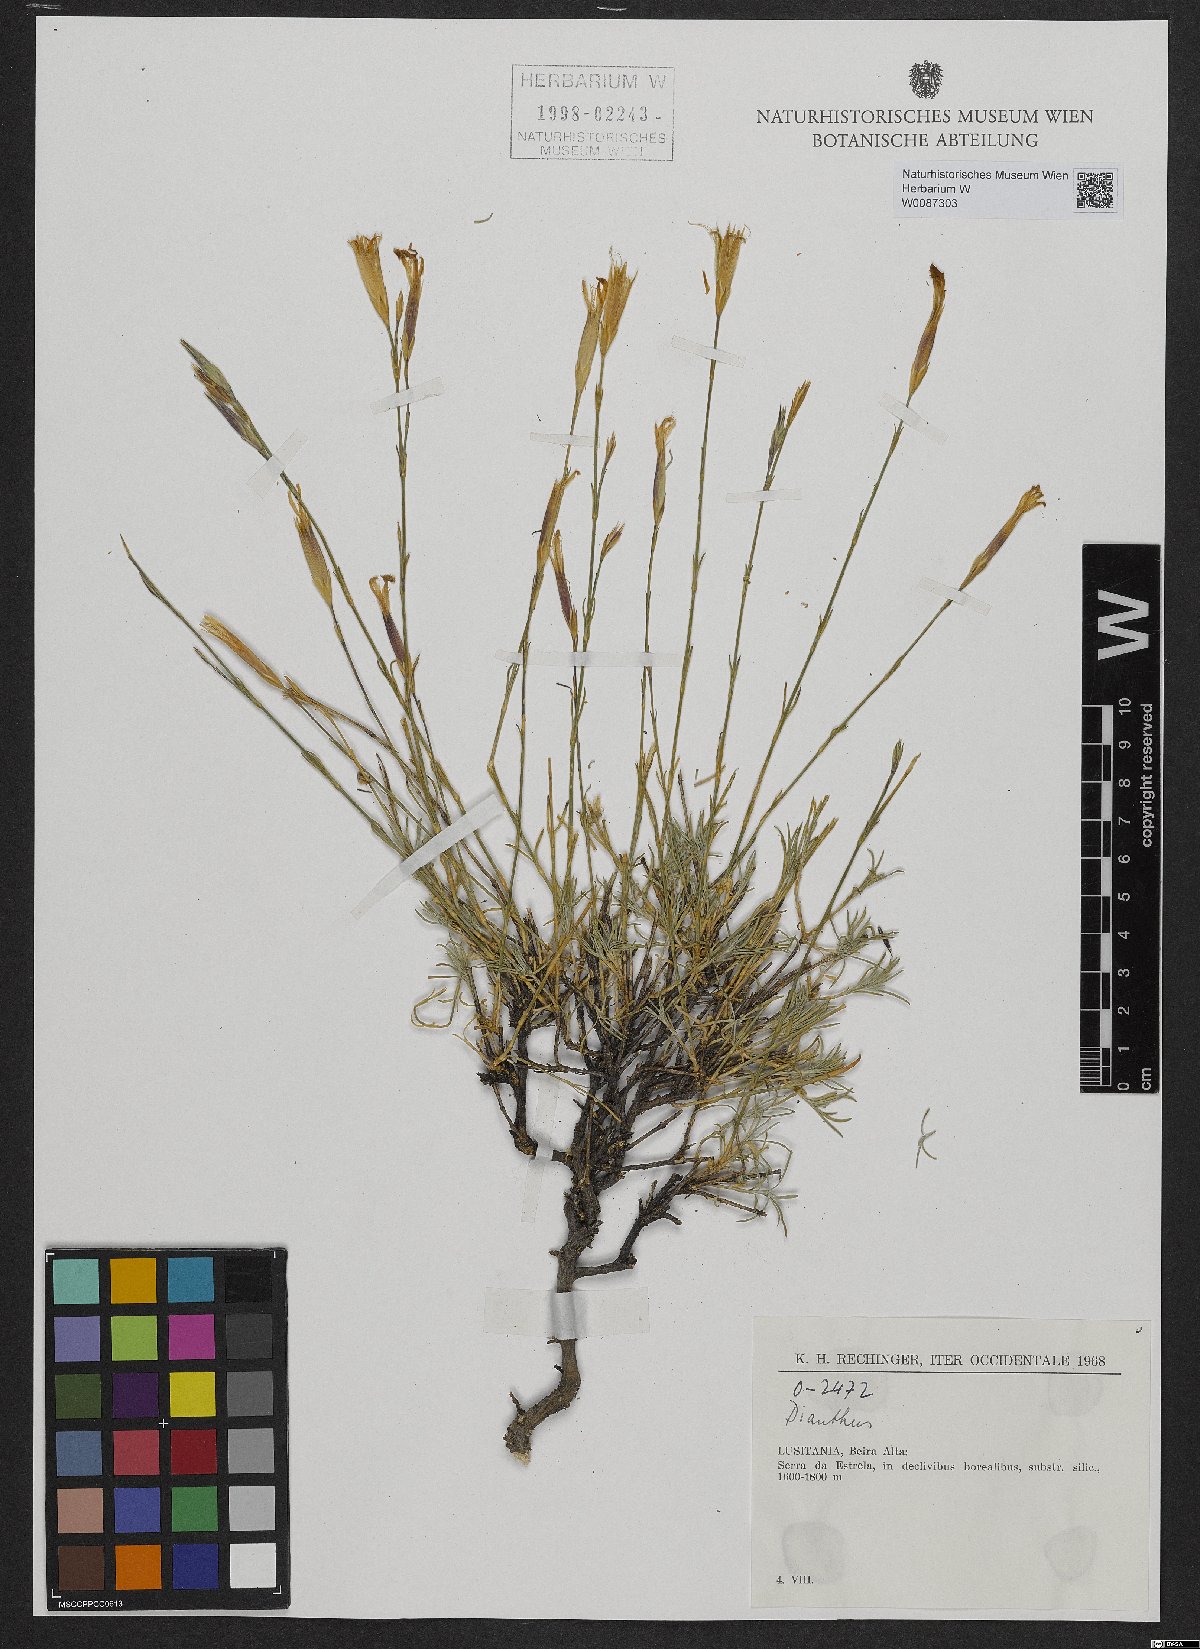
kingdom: Plantae
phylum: Tracheophyta
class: Magnoliopsida
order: Caryophyllales
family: Caryophyllaceae
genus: Dianthus
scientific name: Dianthus
